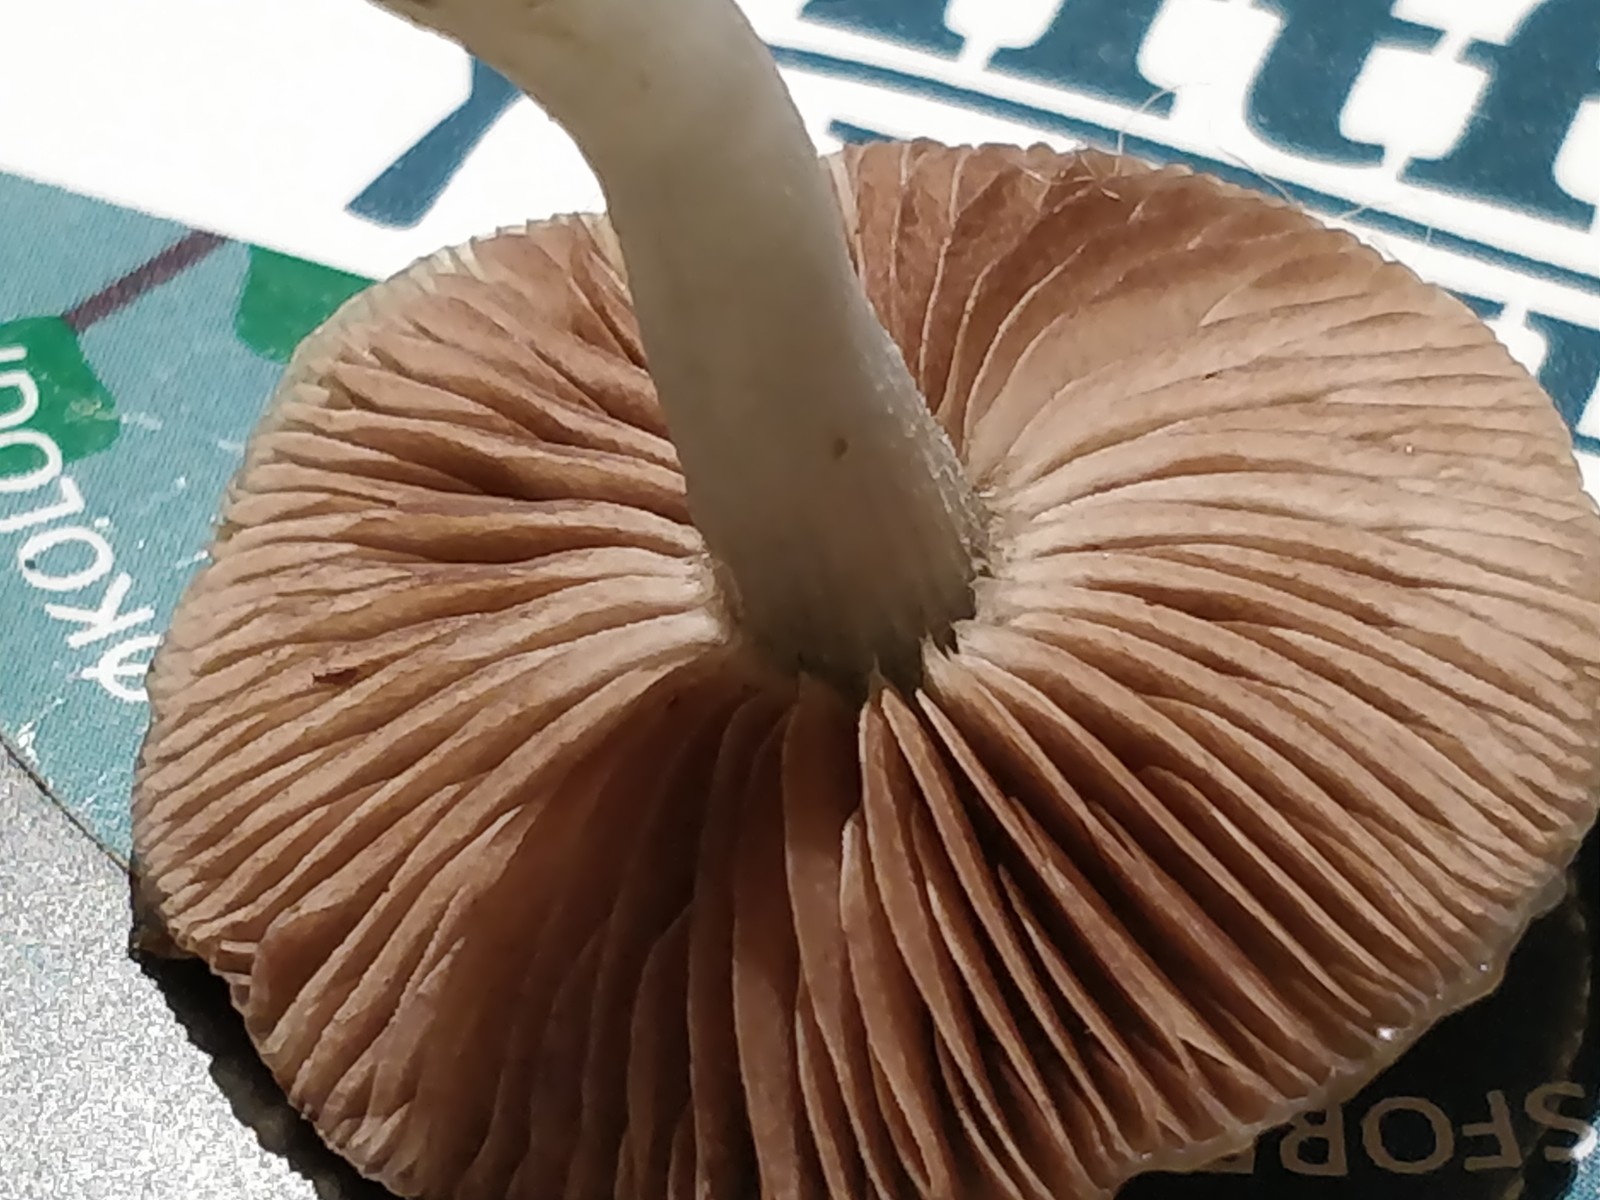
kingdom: Fungi
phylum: Basidiomycota
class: Agaricomycetes
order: Agaricales
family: Strophariaceae
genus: Stropharia
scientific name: Stropharia pseudocyanea
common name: blegblå bredblad
